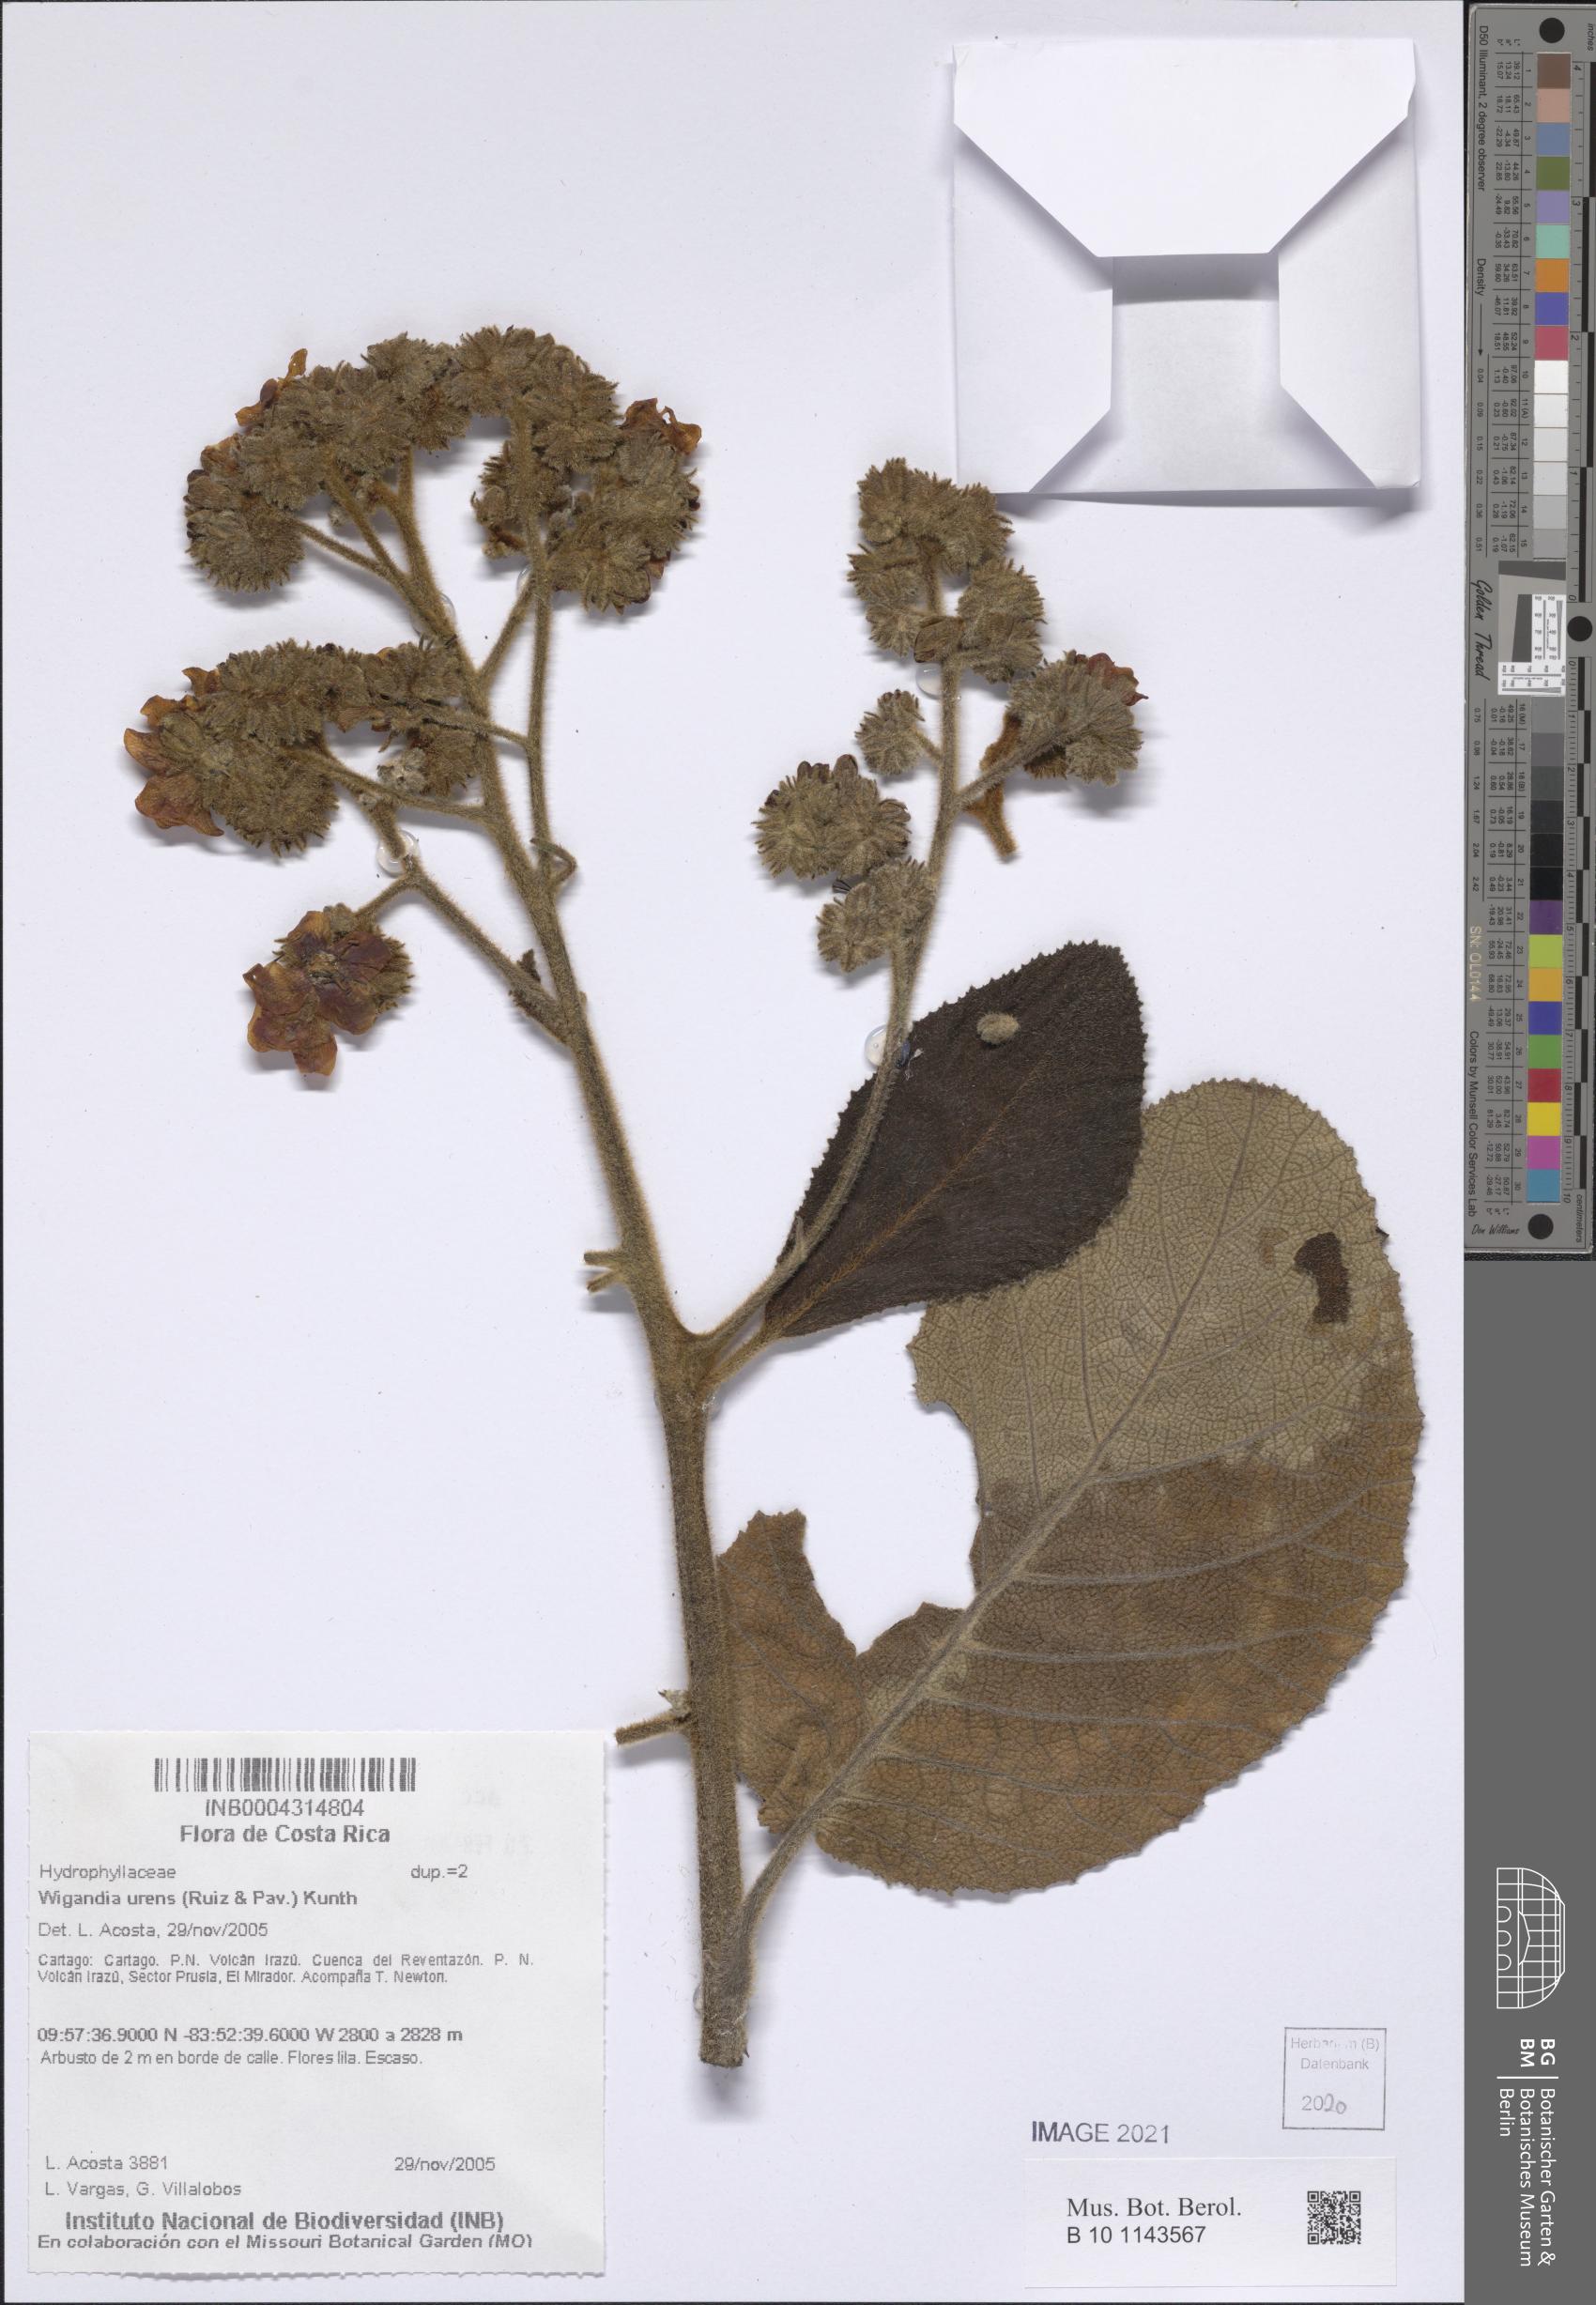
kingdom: Plantae
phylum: Tracheophyta
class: Magnoliopsida
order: Boraginales
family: Namaceae
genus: Wigandia
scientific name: Wigandia urens
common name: Caracus wigandia
